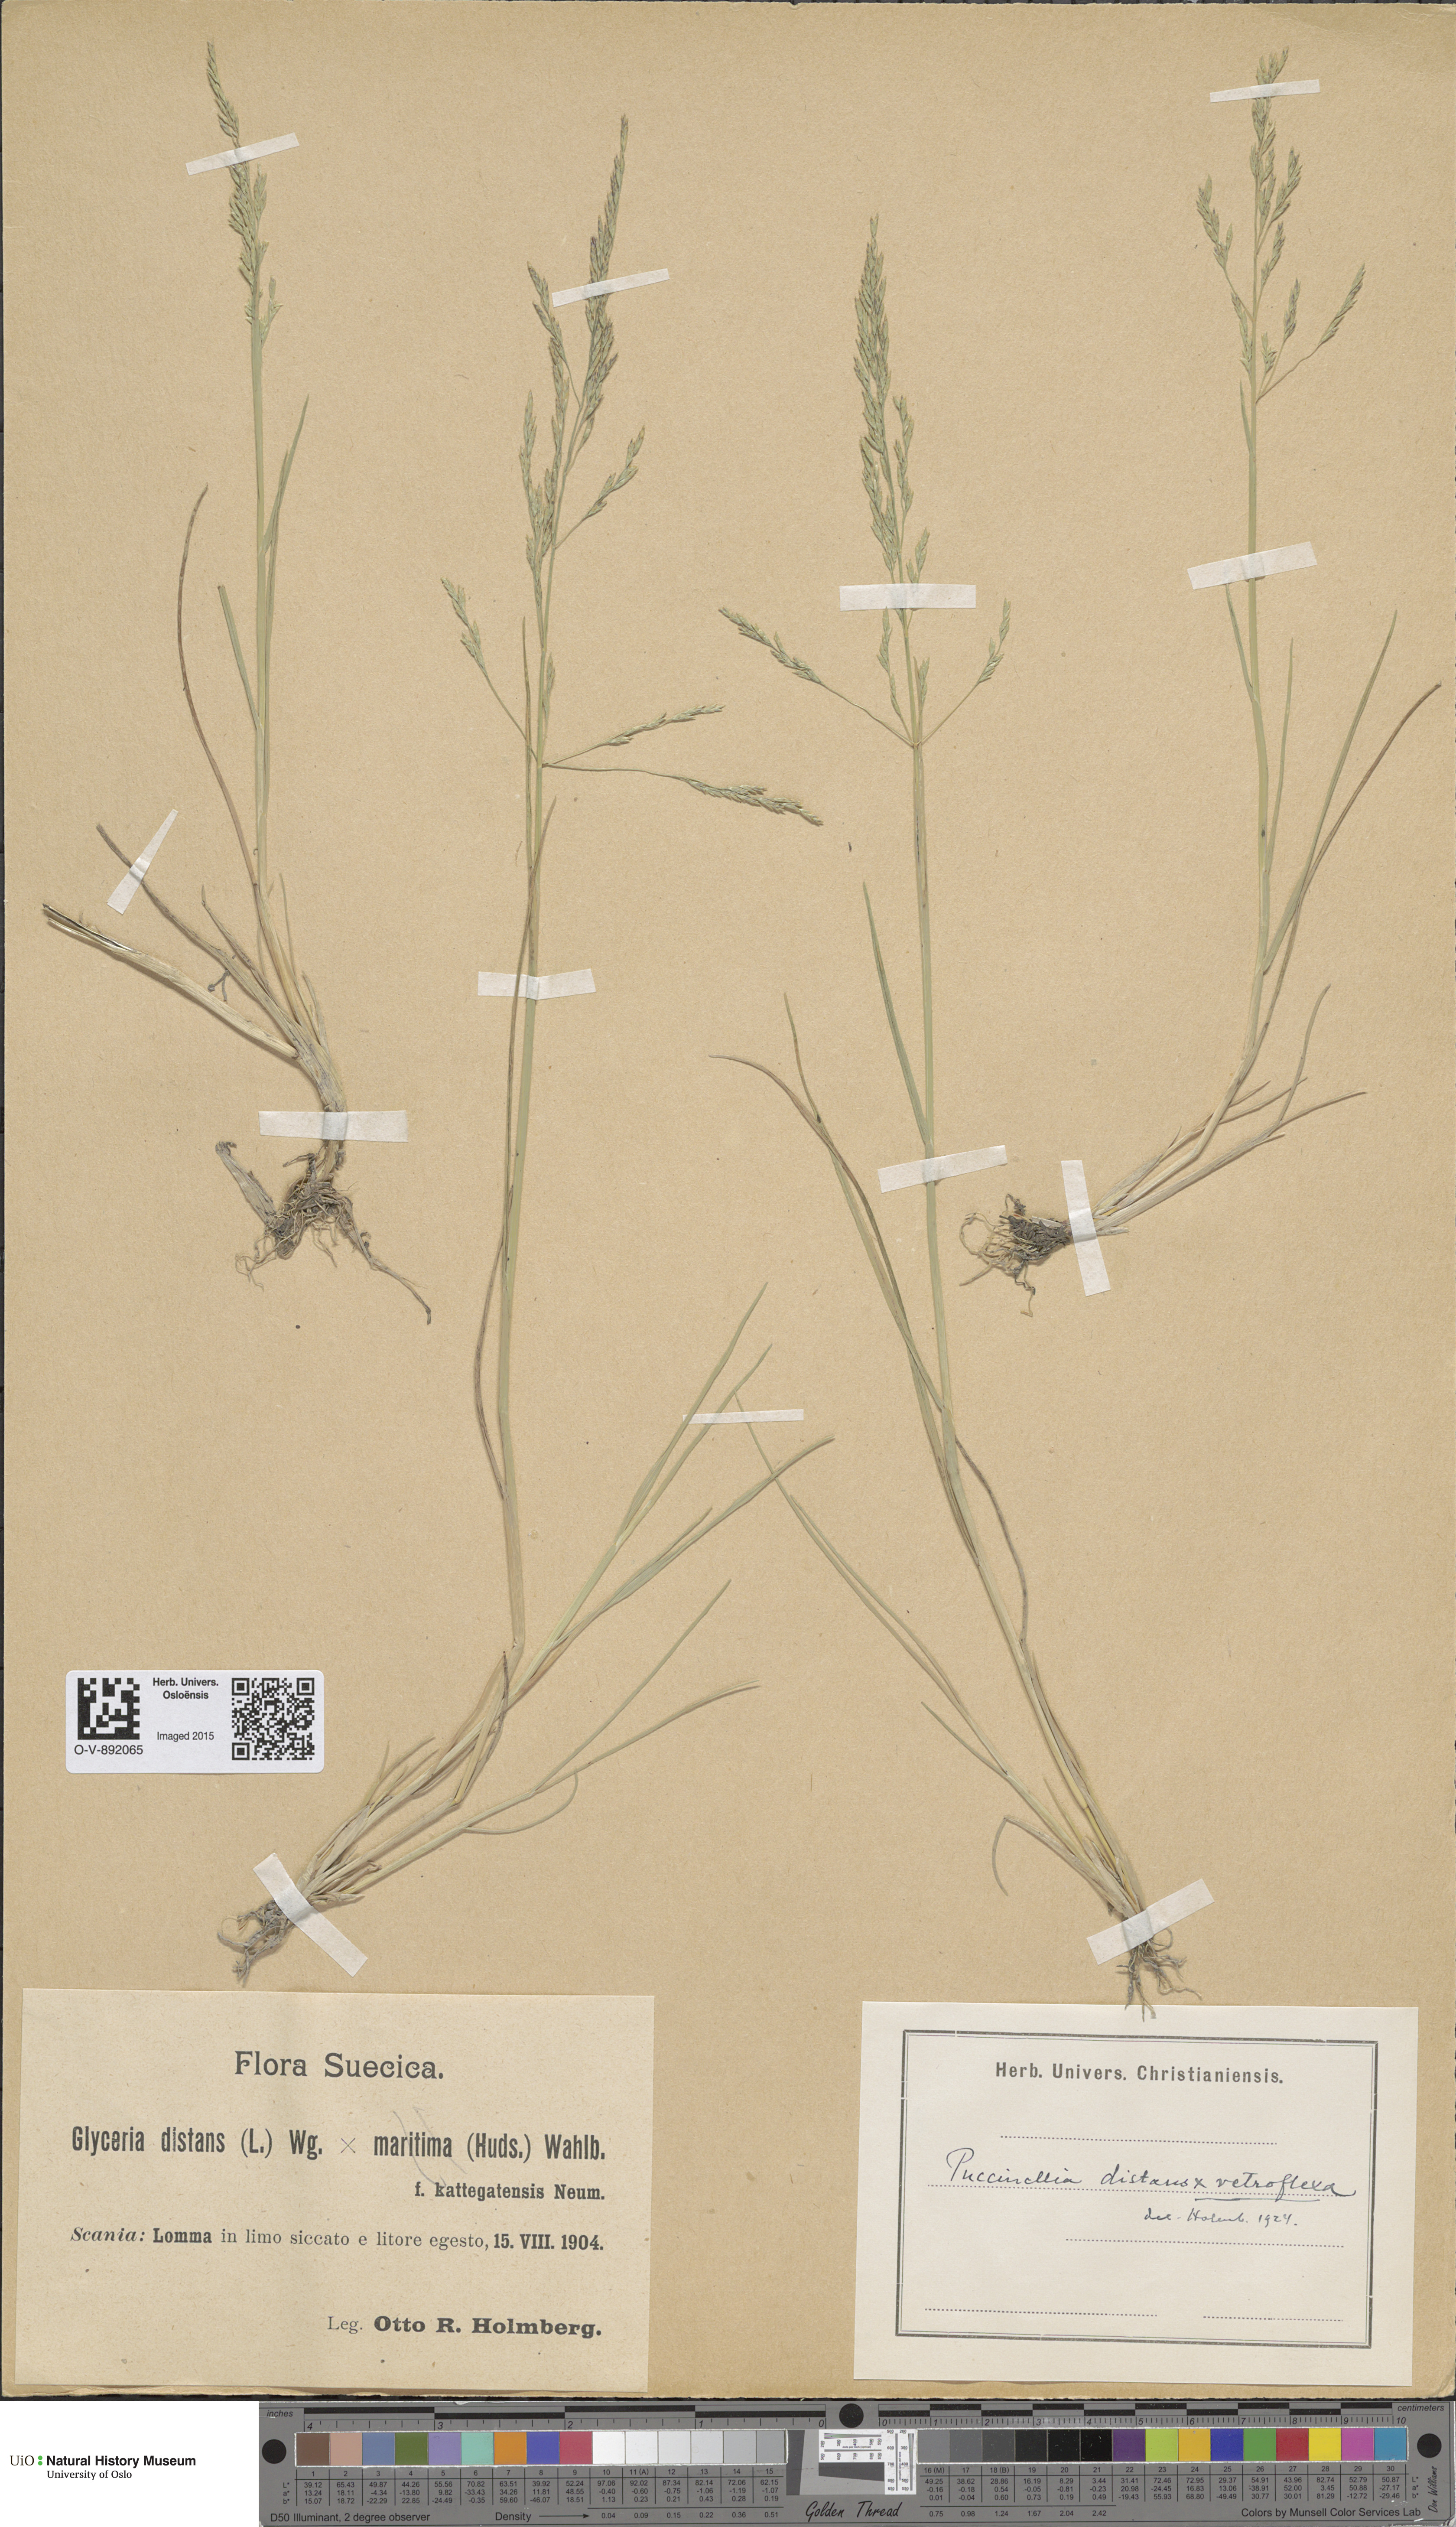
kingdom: Plantae
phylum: Tracheophyta
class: Liliopsida
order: Poales
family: Poaceae
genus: Puccinellia
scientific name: Puccinellia
